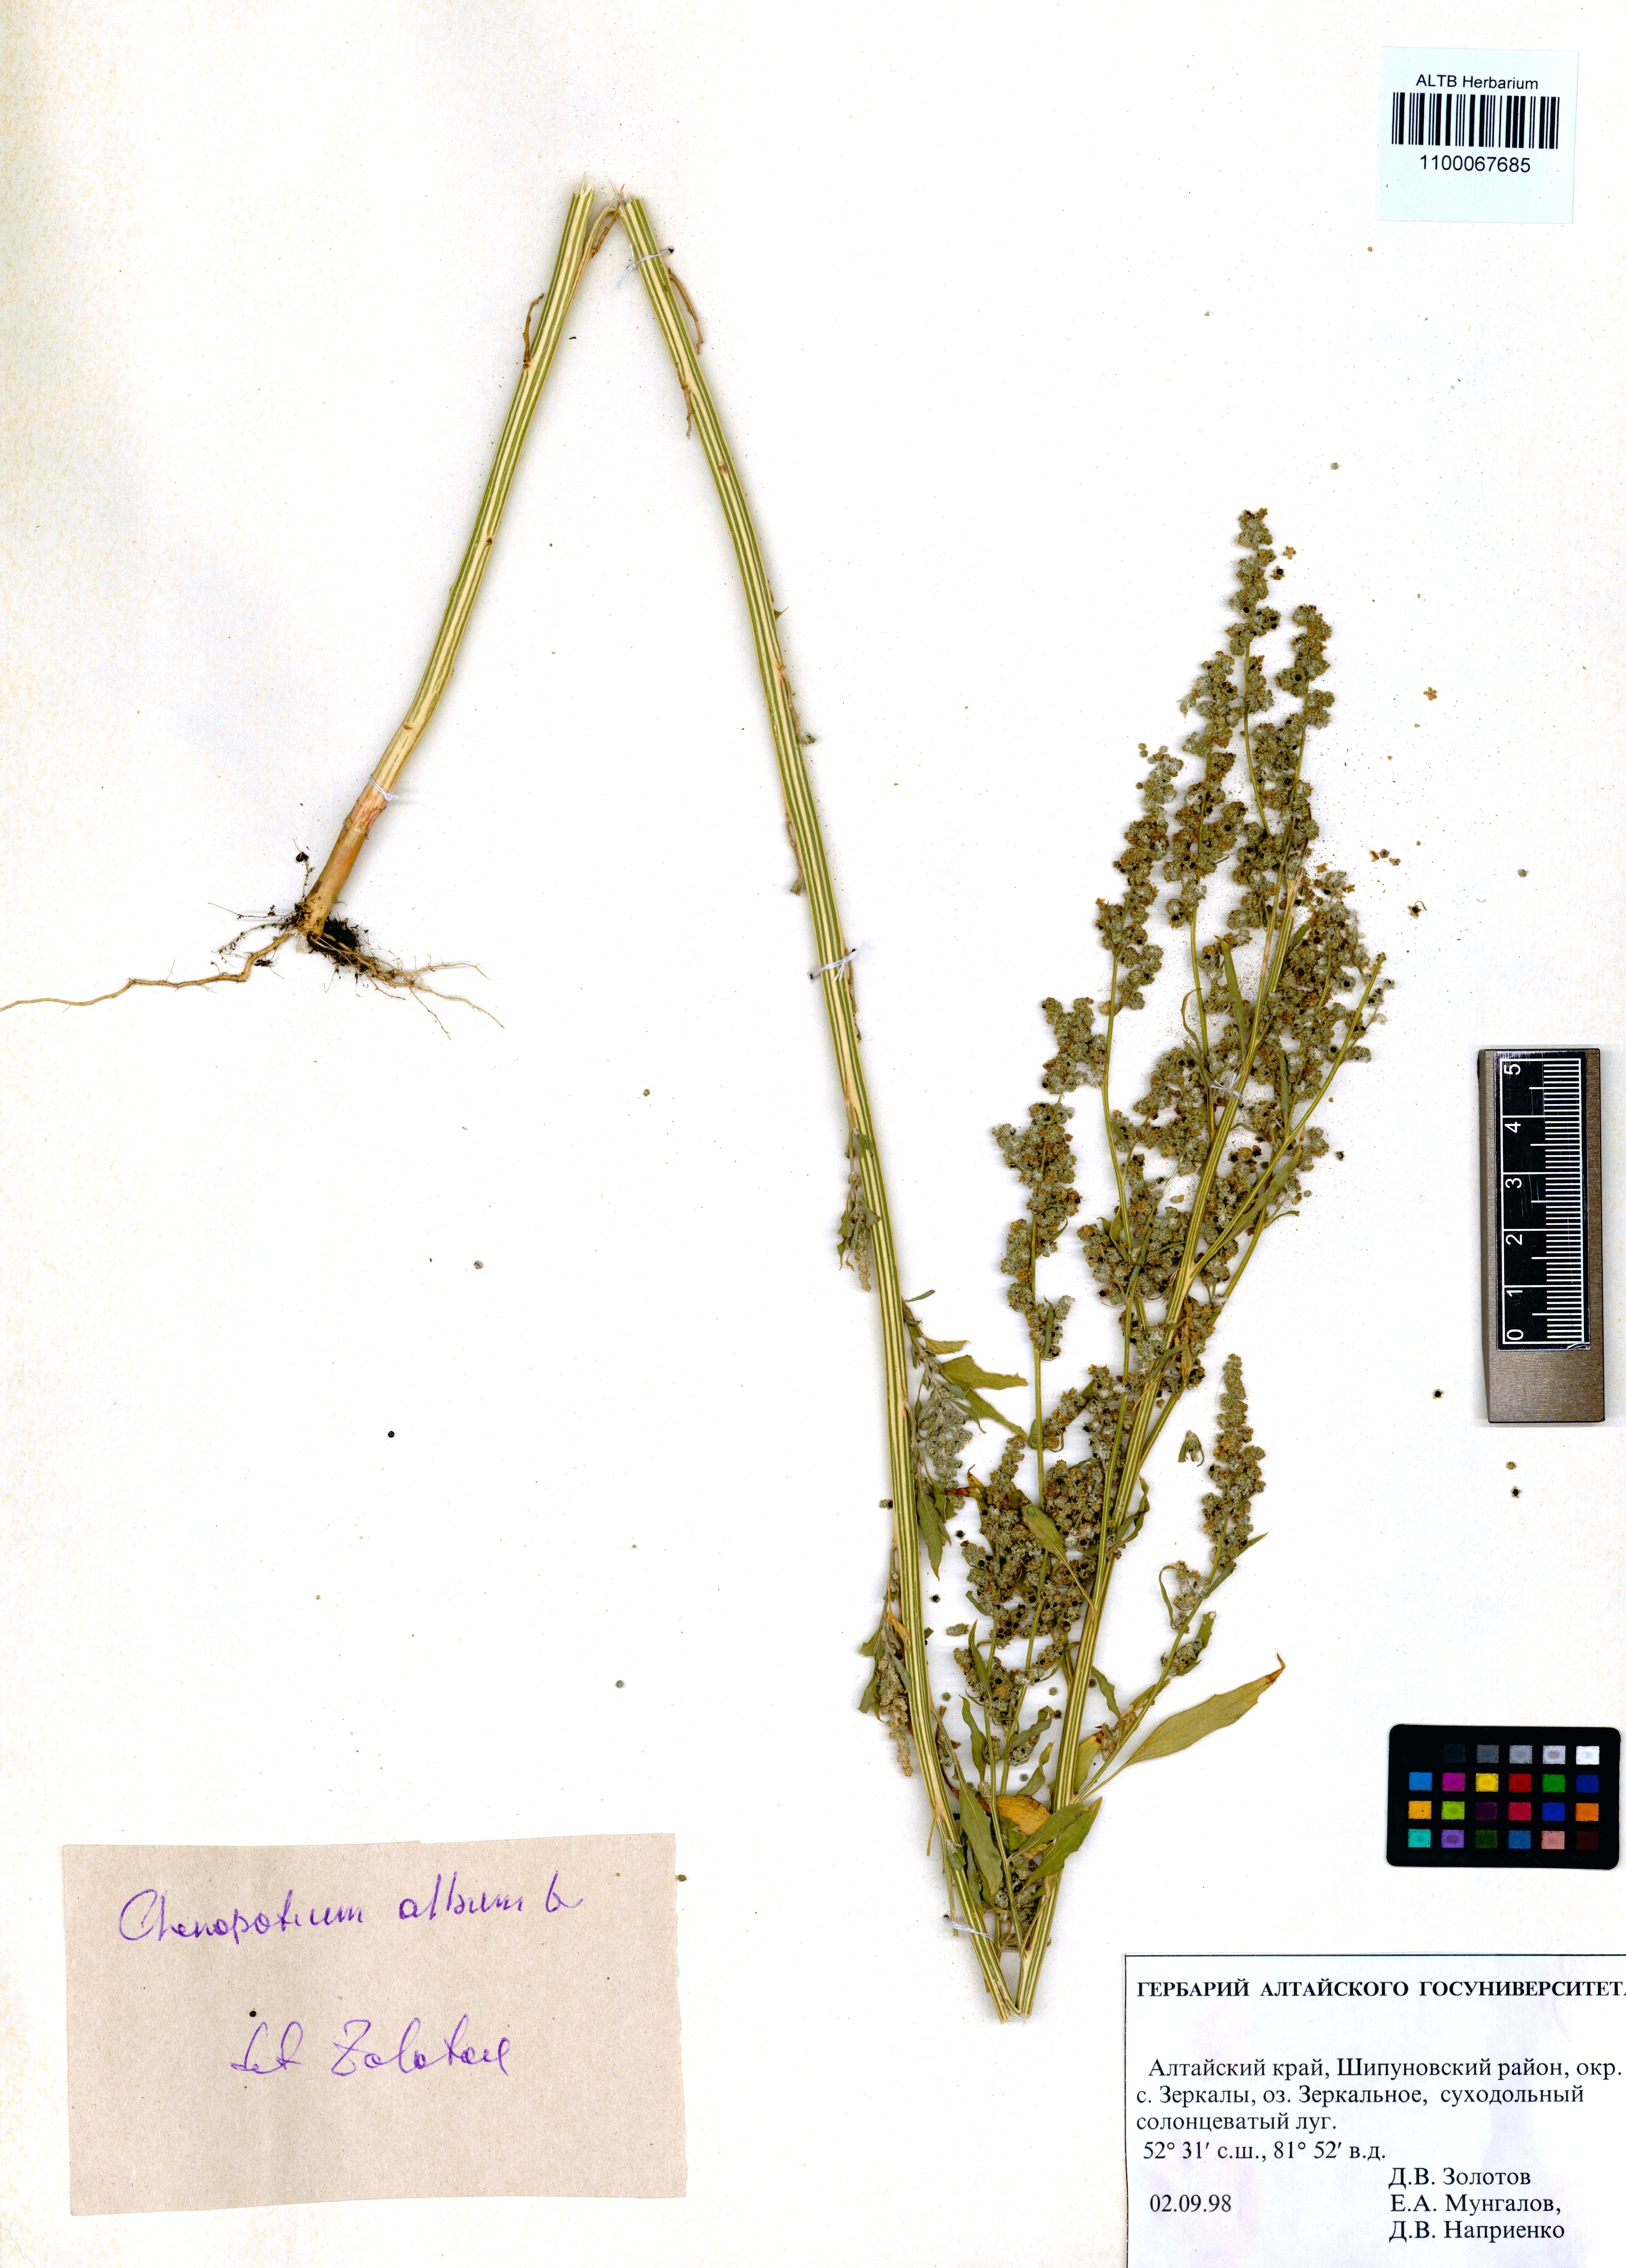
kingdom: Plantae
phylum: Tracheophyta
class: Magnoliopsida
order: Caryophyllales
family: Amaranthaceae
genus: Chenopodium
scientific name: Chenopodium album
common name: Fat-hen
